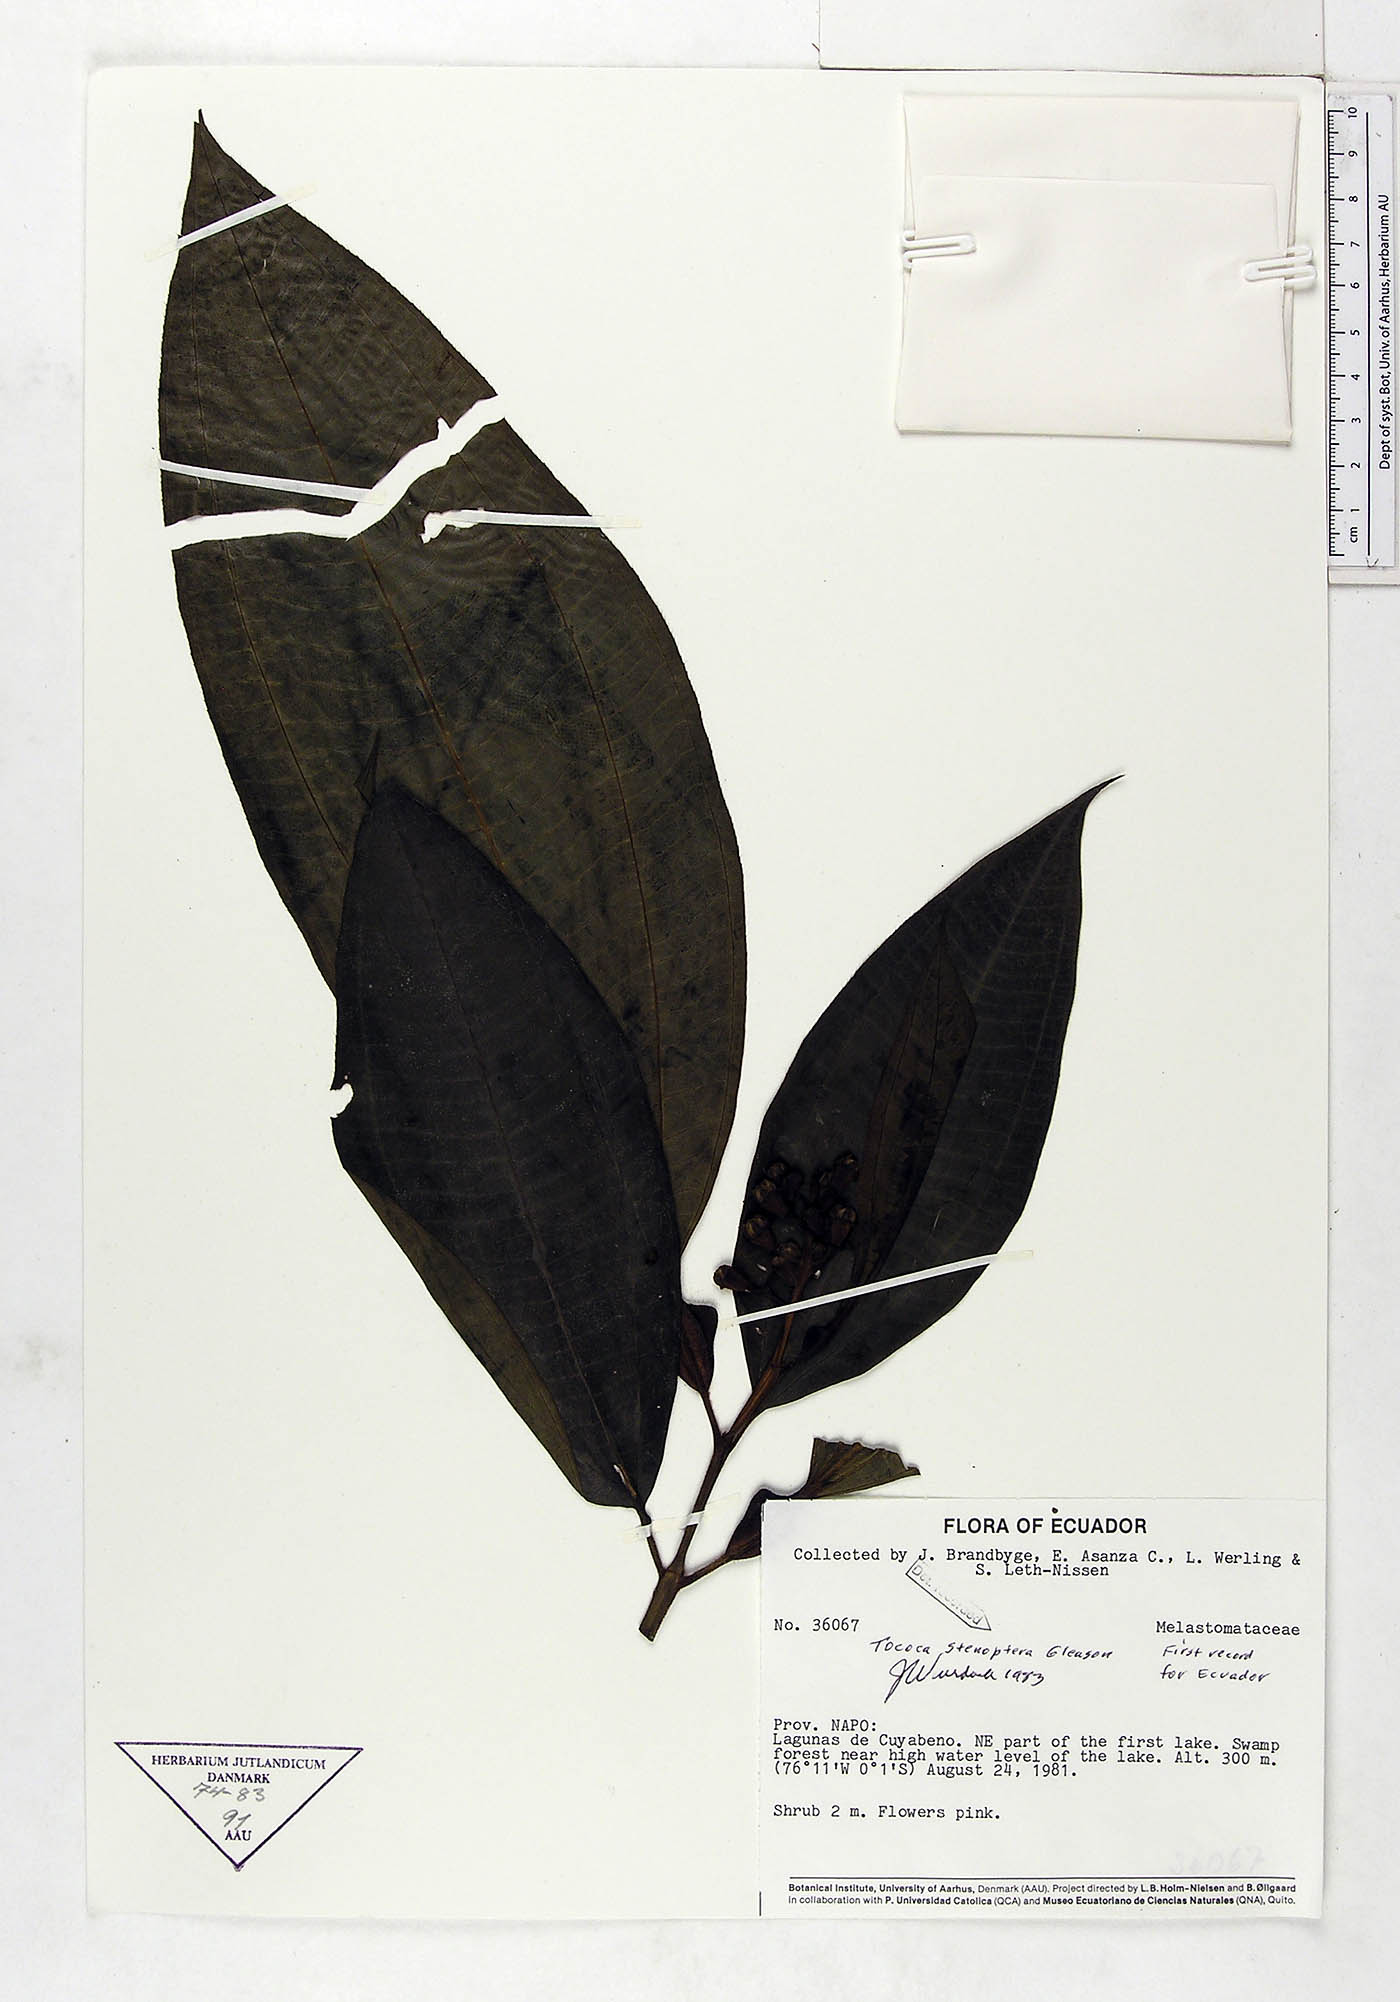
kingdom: Plantae
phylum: Tracheophyta
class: Magnoliopsida
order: Myrtales
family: Melastomataceae
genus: Miconia
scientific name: Miconia stenoptera
